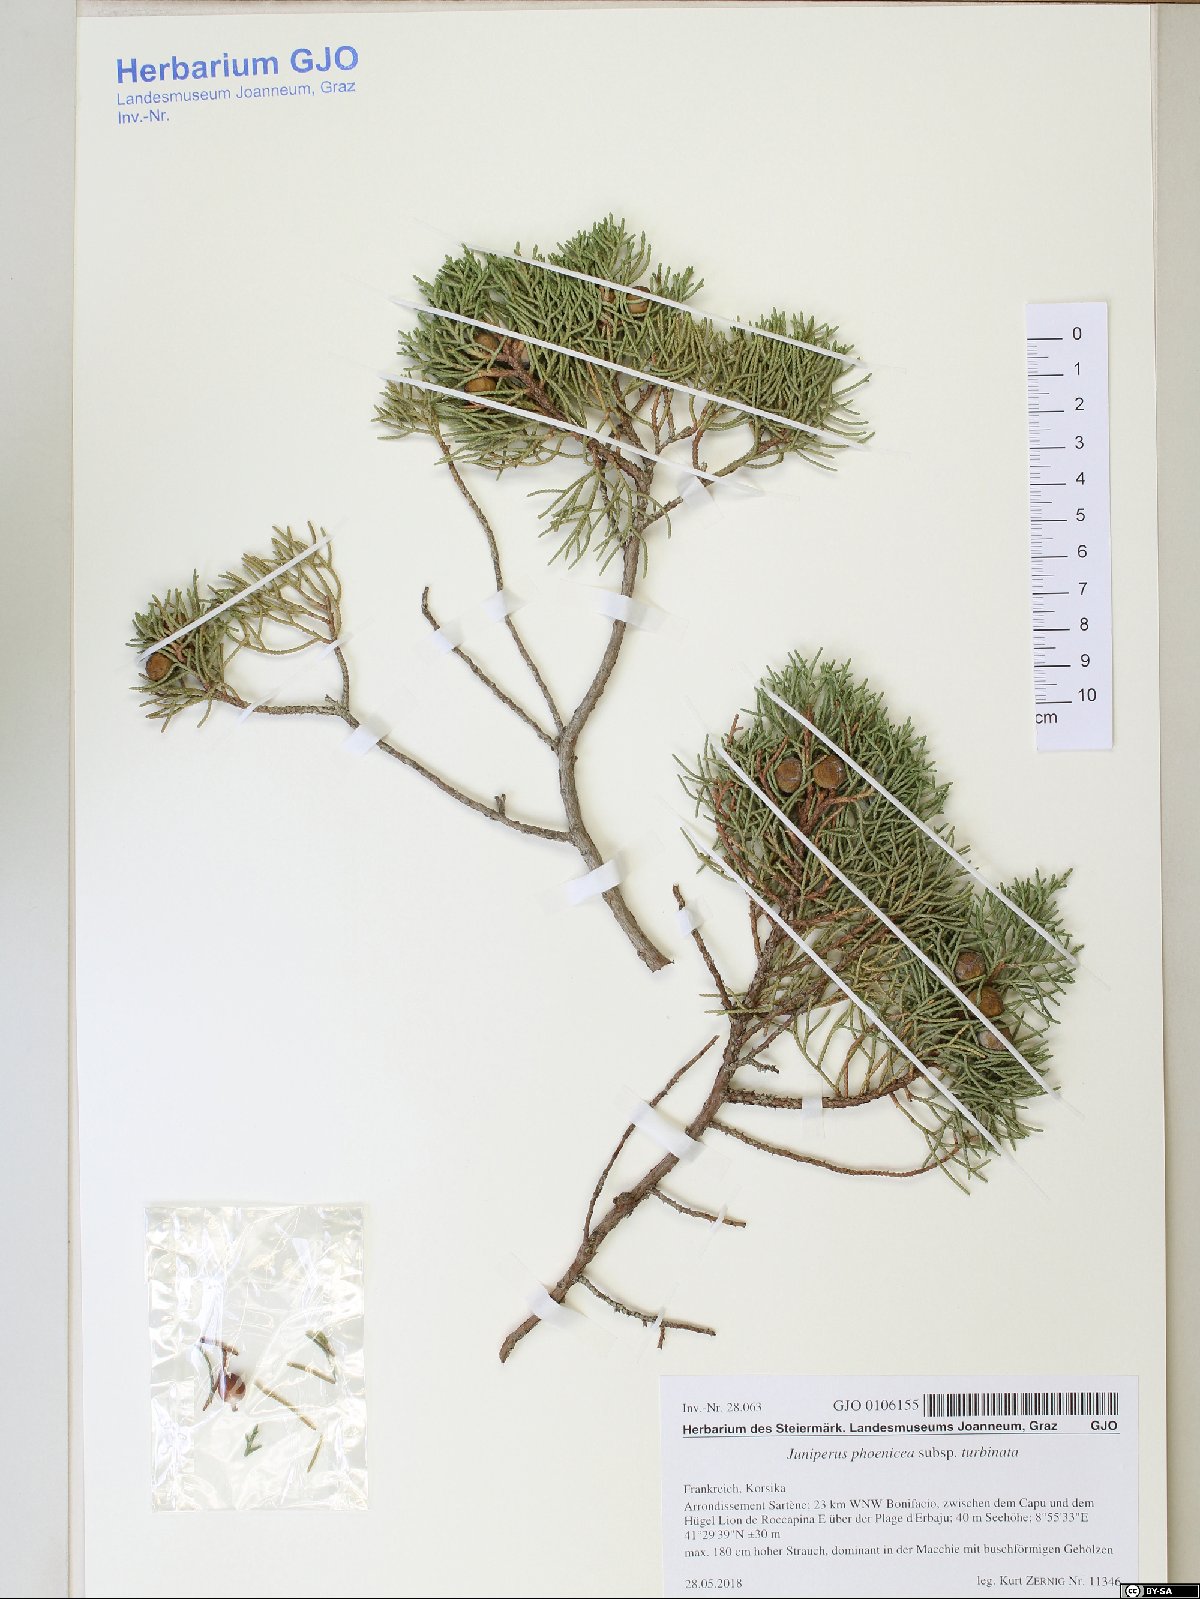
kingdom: Plantae
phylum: Tracheophyta
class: Pinopsida
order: Pinales
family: Cupressaceae
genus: Juniperus
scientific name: Juniperus phoenicea
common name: Phoenician juniper
